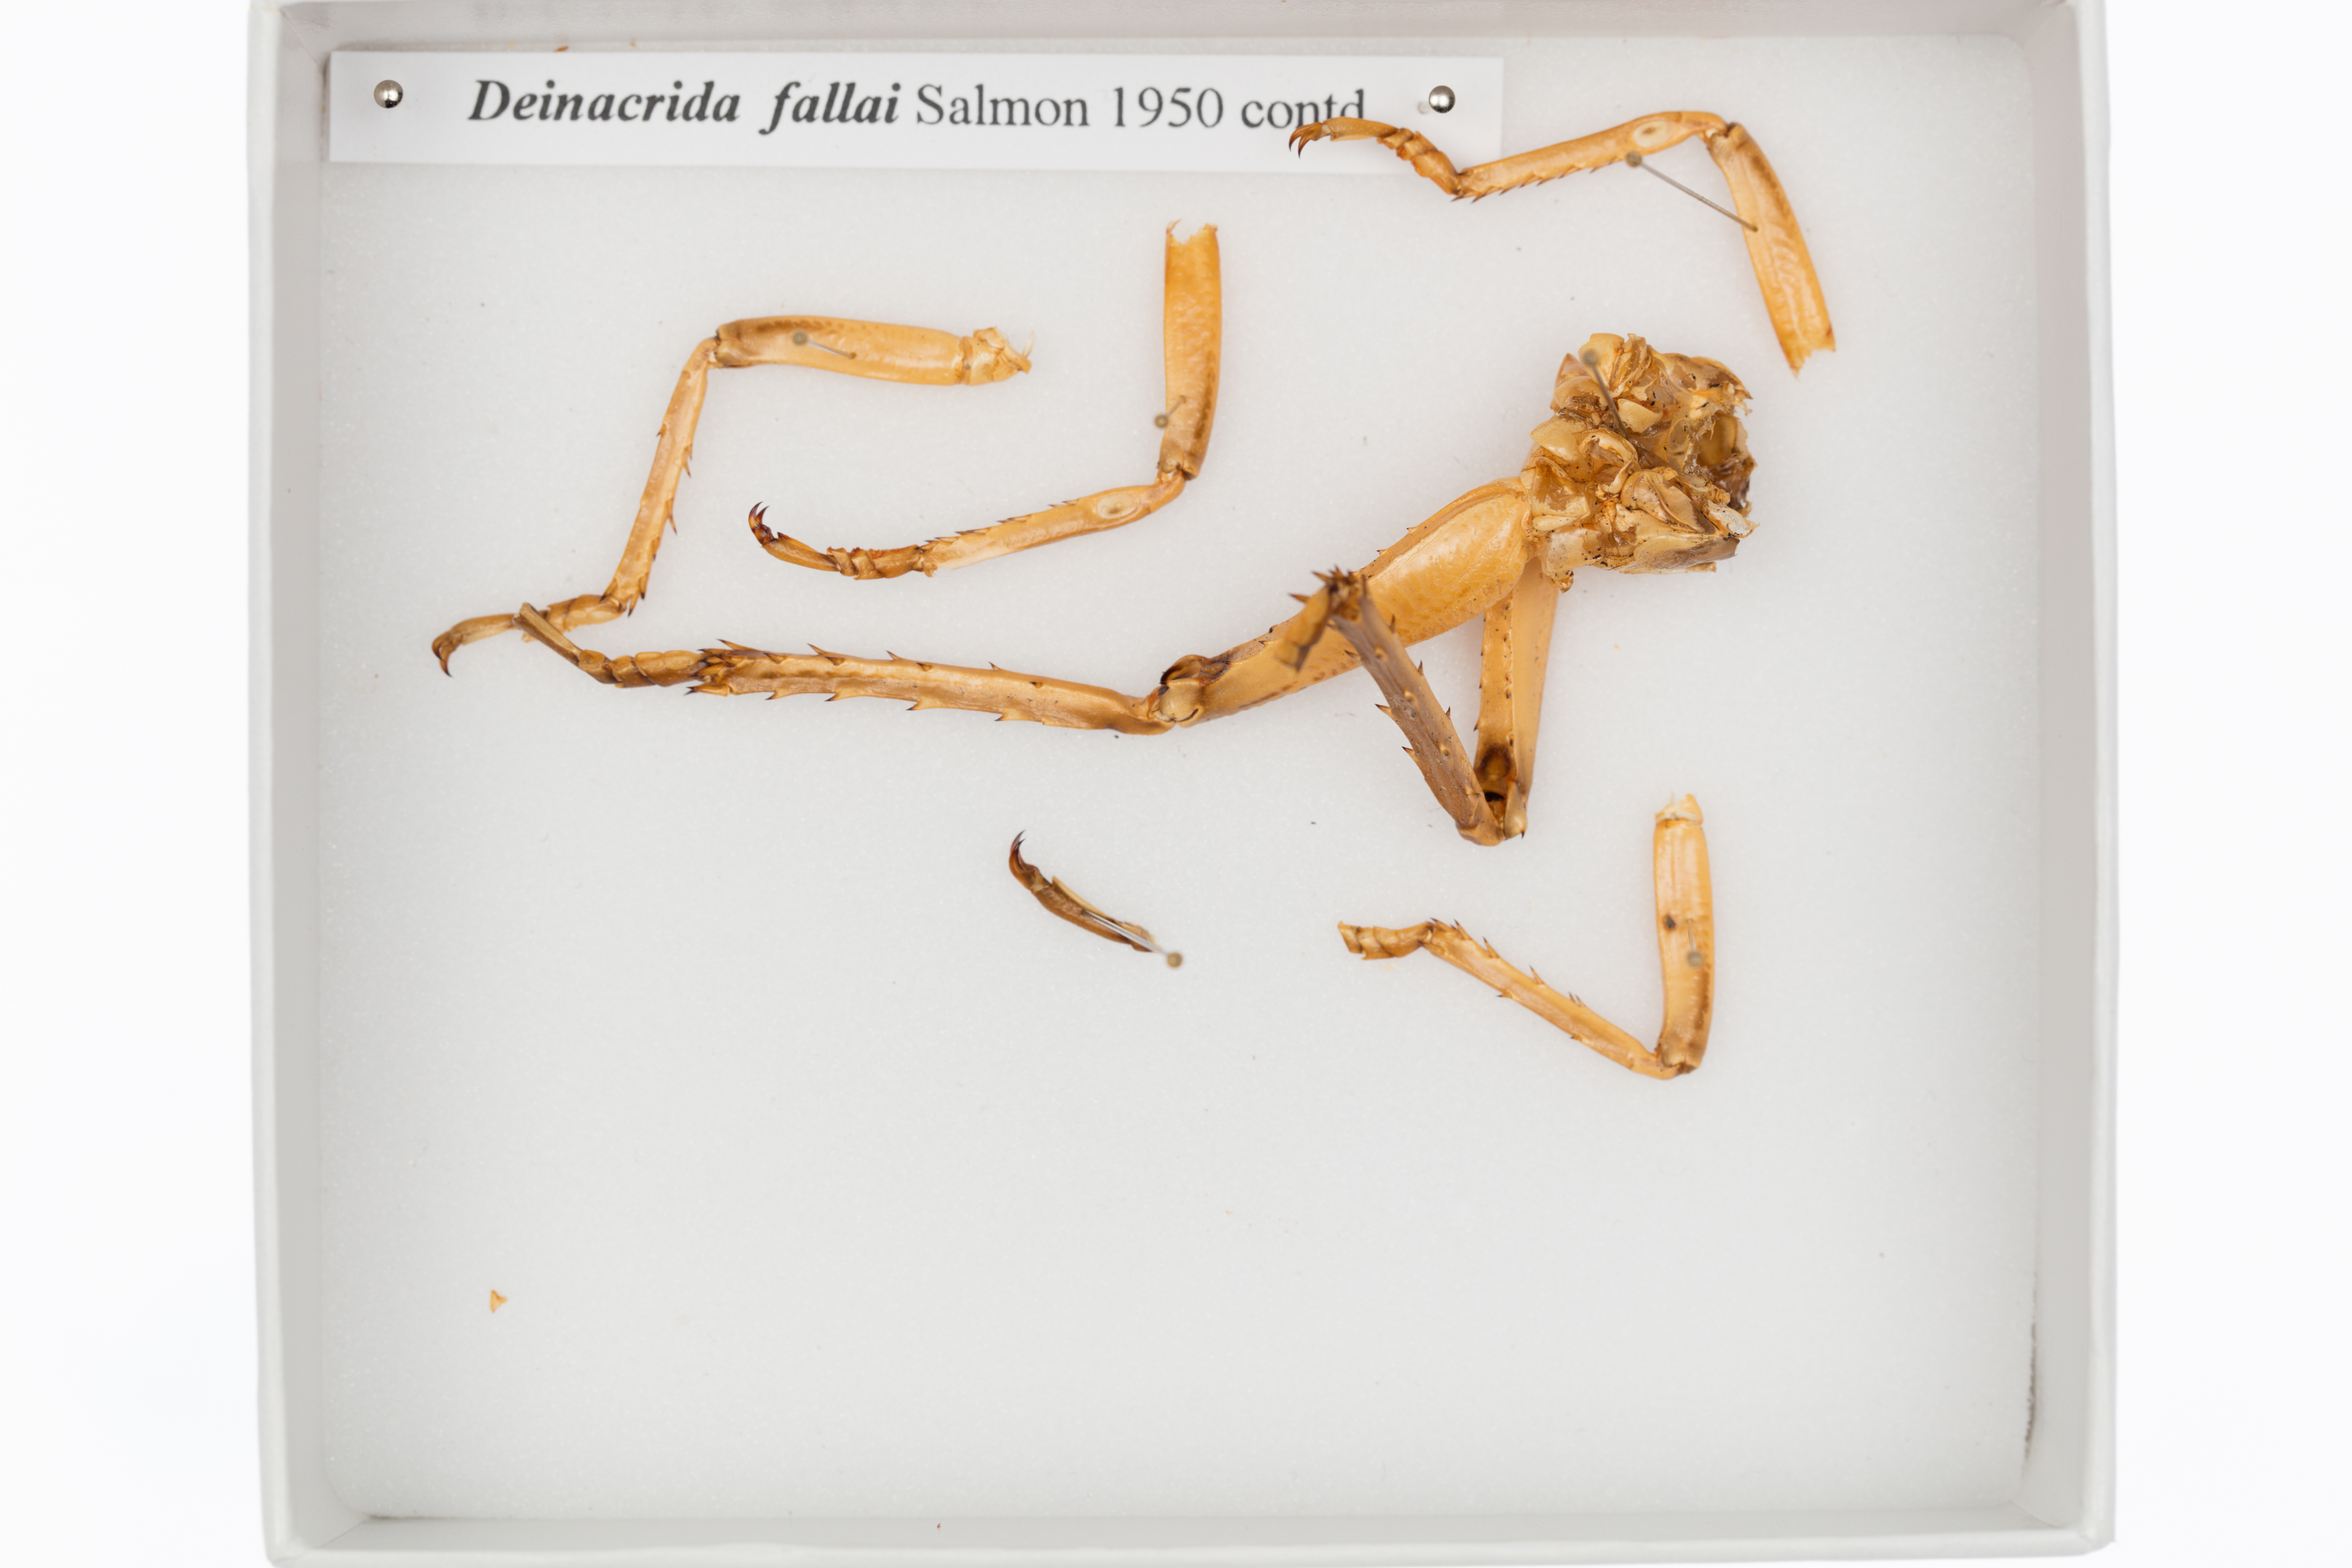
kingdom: Animalia
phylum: Arthropoda
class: Insecta
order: Orthoptera
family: Anostostomatidae
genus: Deinacrida
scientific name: Deinacrida fallai
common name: Poor knights weta
